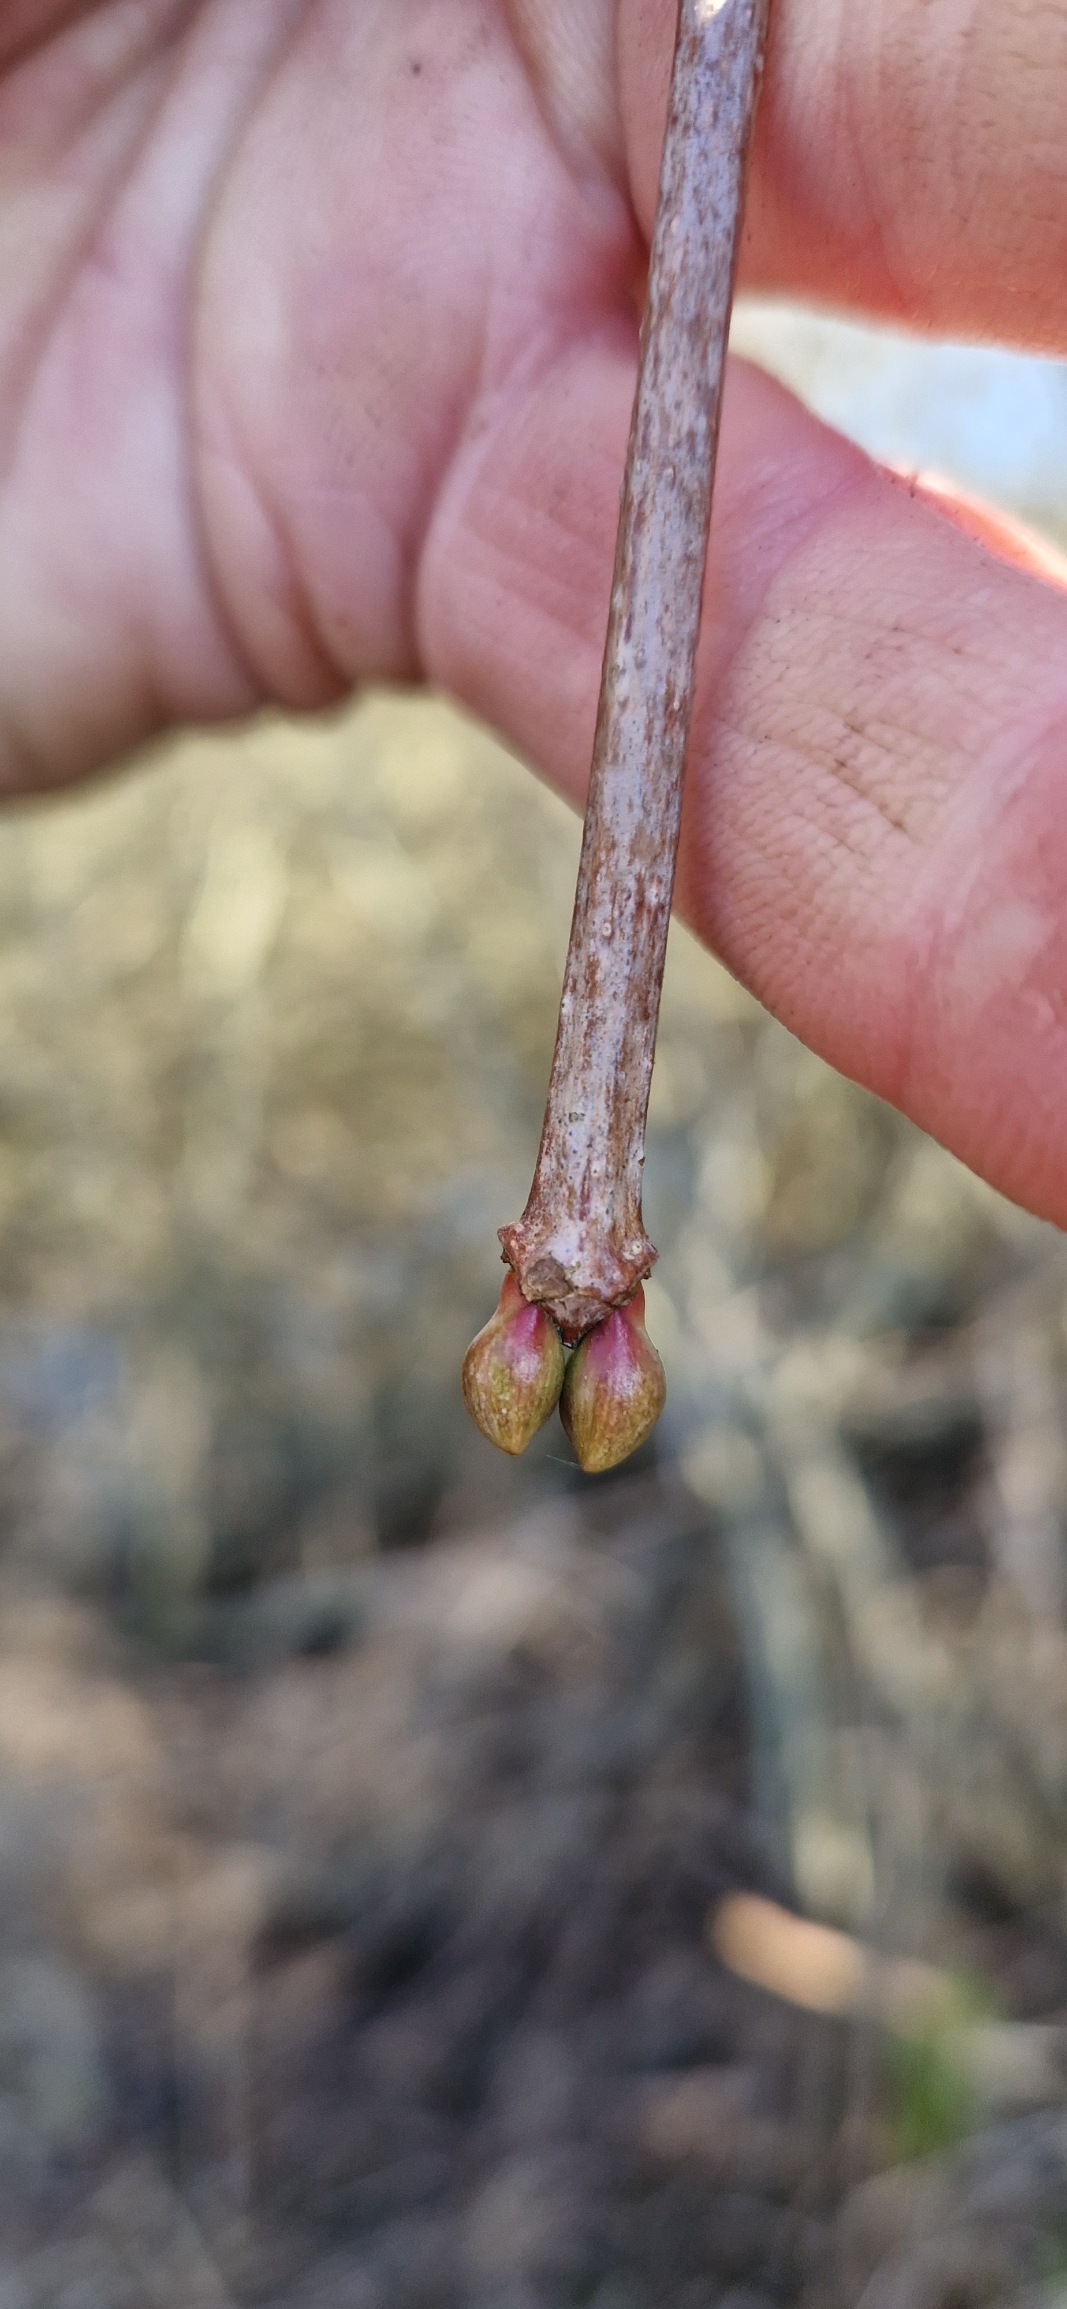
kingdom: Plantae
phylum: Tracheophyta
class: Magnoliopsida
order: Dipsacales
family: Viburnaceae
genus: Viburnum
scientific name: Viburnum opulus
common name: Kvalkved
